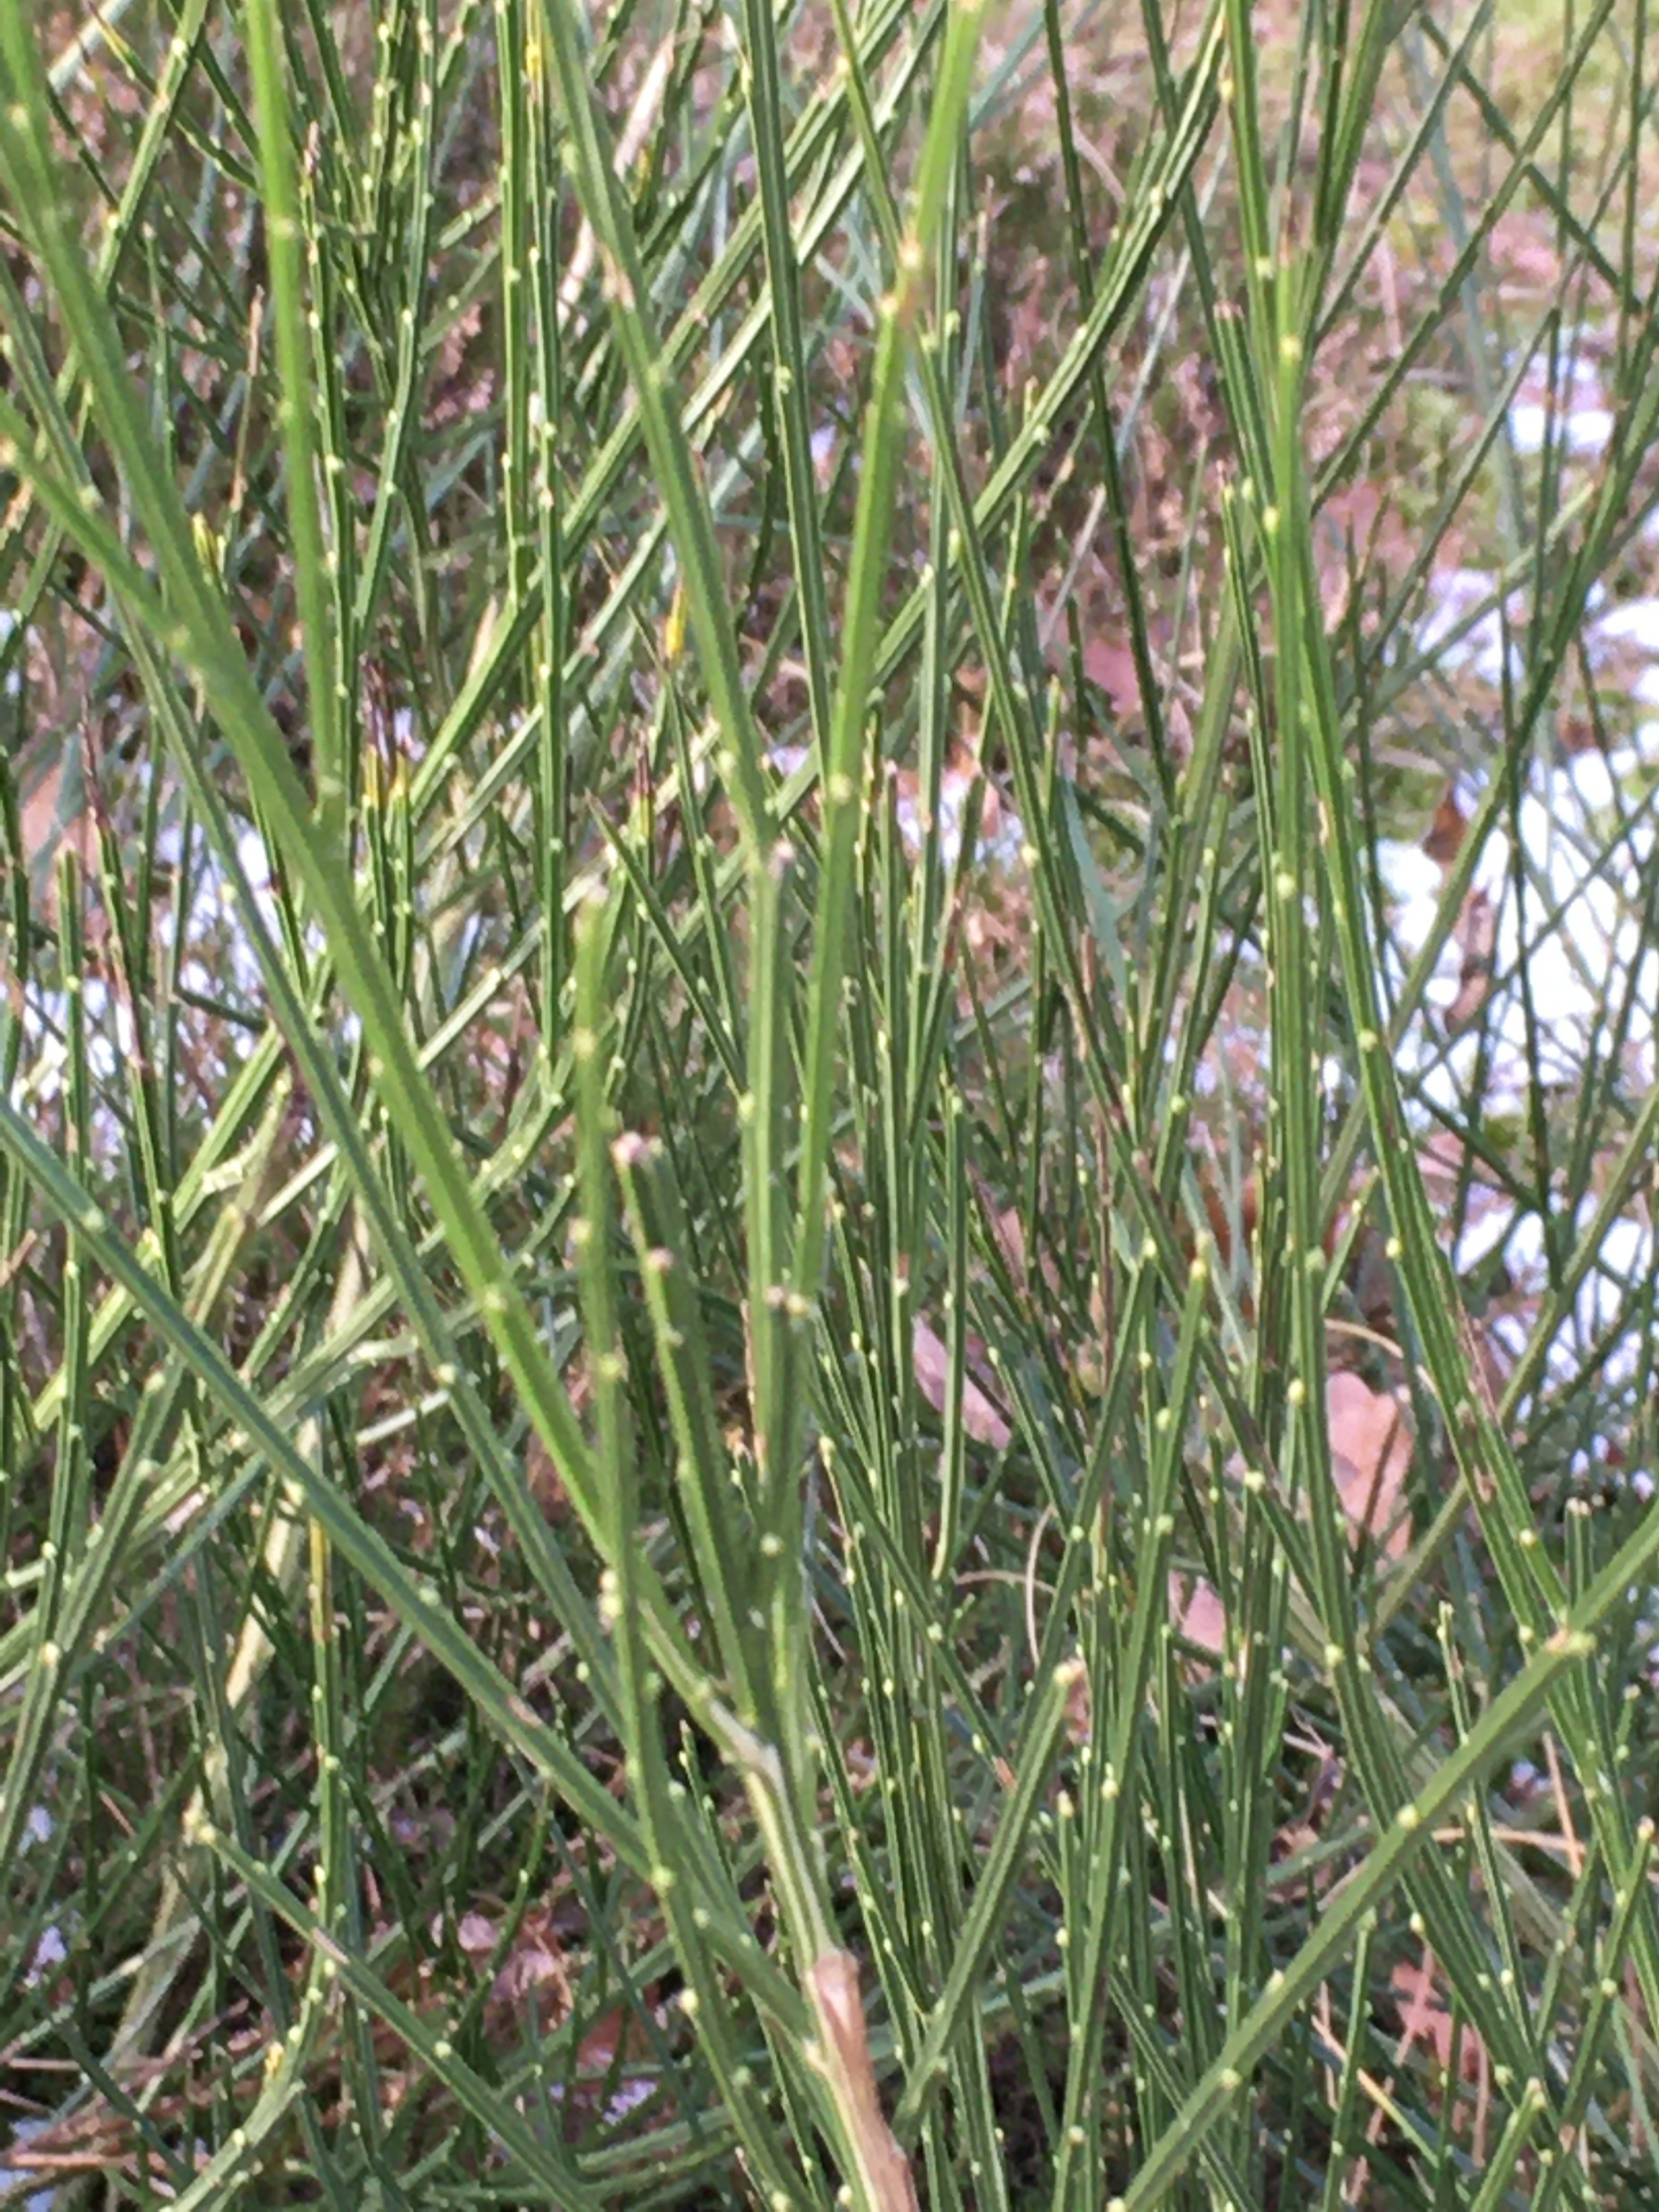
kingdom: Plantae
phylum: Tracheophyta
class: Magnoliopsida
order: Fabales
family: Fabaceae
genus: Cytisus
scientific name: Cytisus scoparius
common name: Almindelig gyvel
